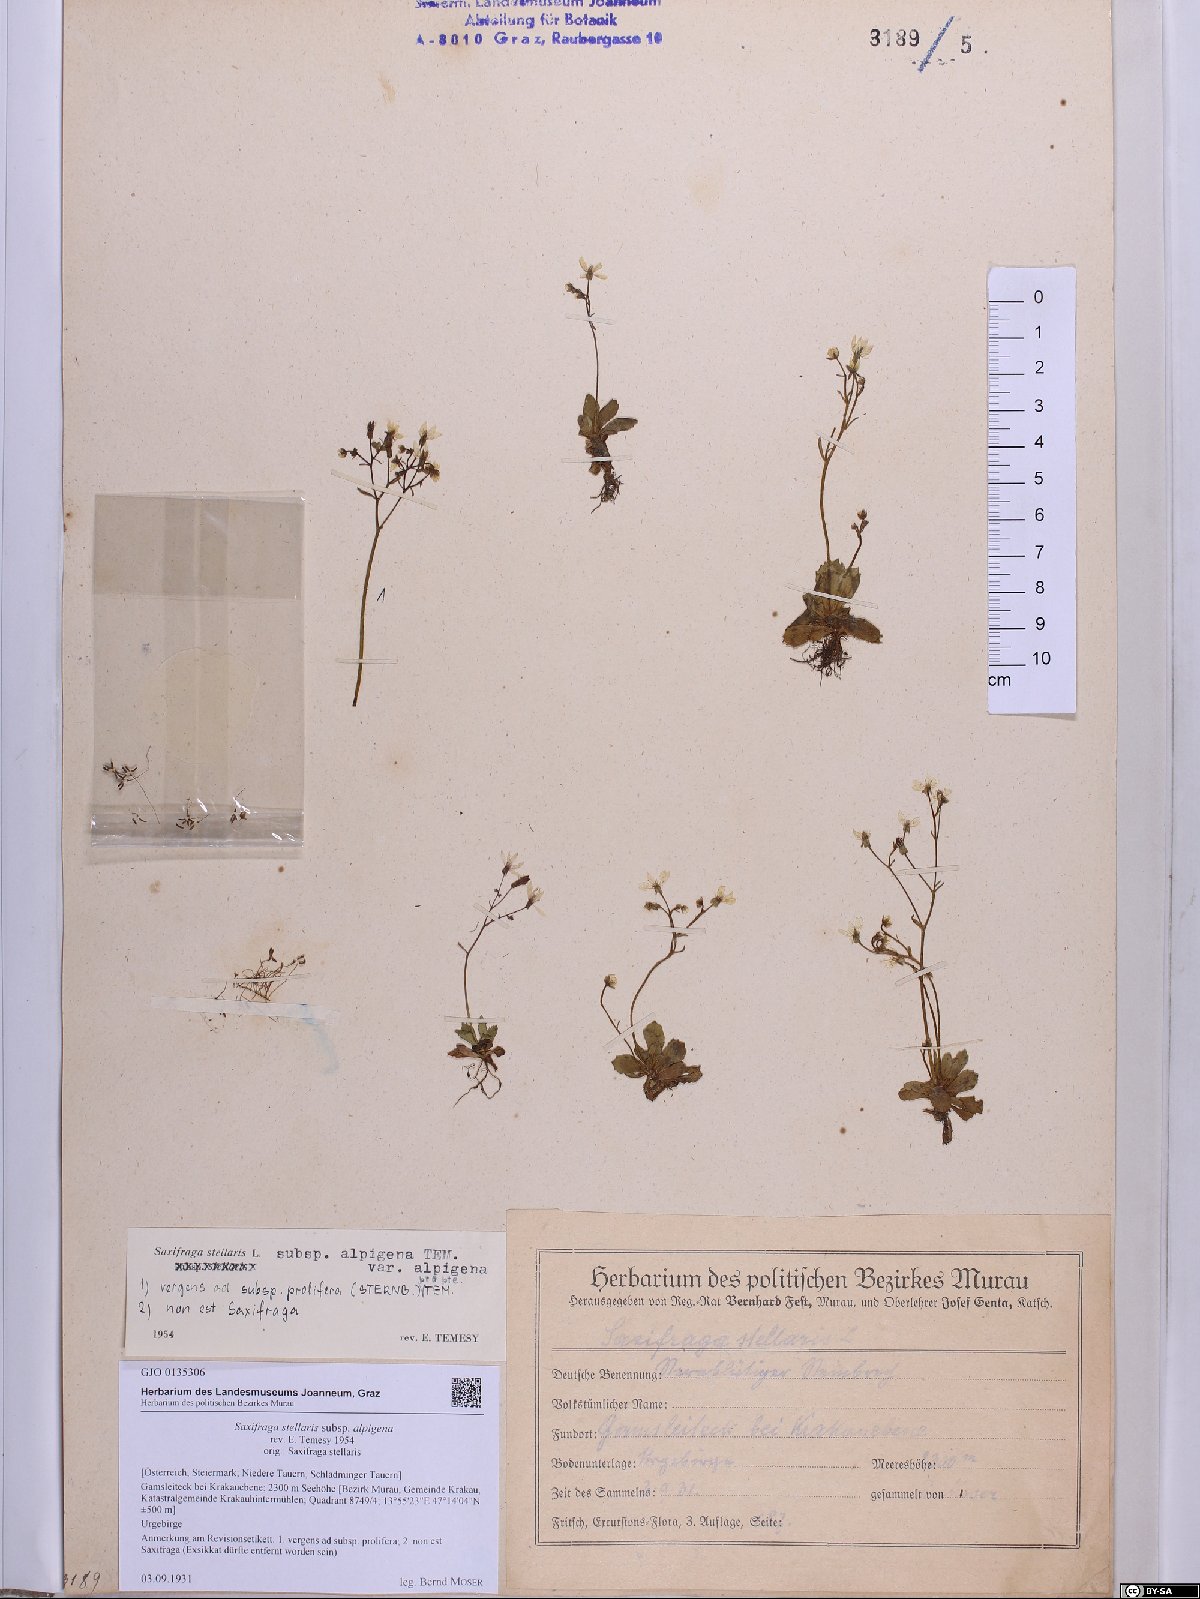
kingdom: Plantae
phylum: Tracheophyta
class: Magnoliopsida
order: Saxifragales
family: Saxifragaceae
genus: Micranthes
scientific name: Micranthes stellaris
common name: Starry saxifrage
